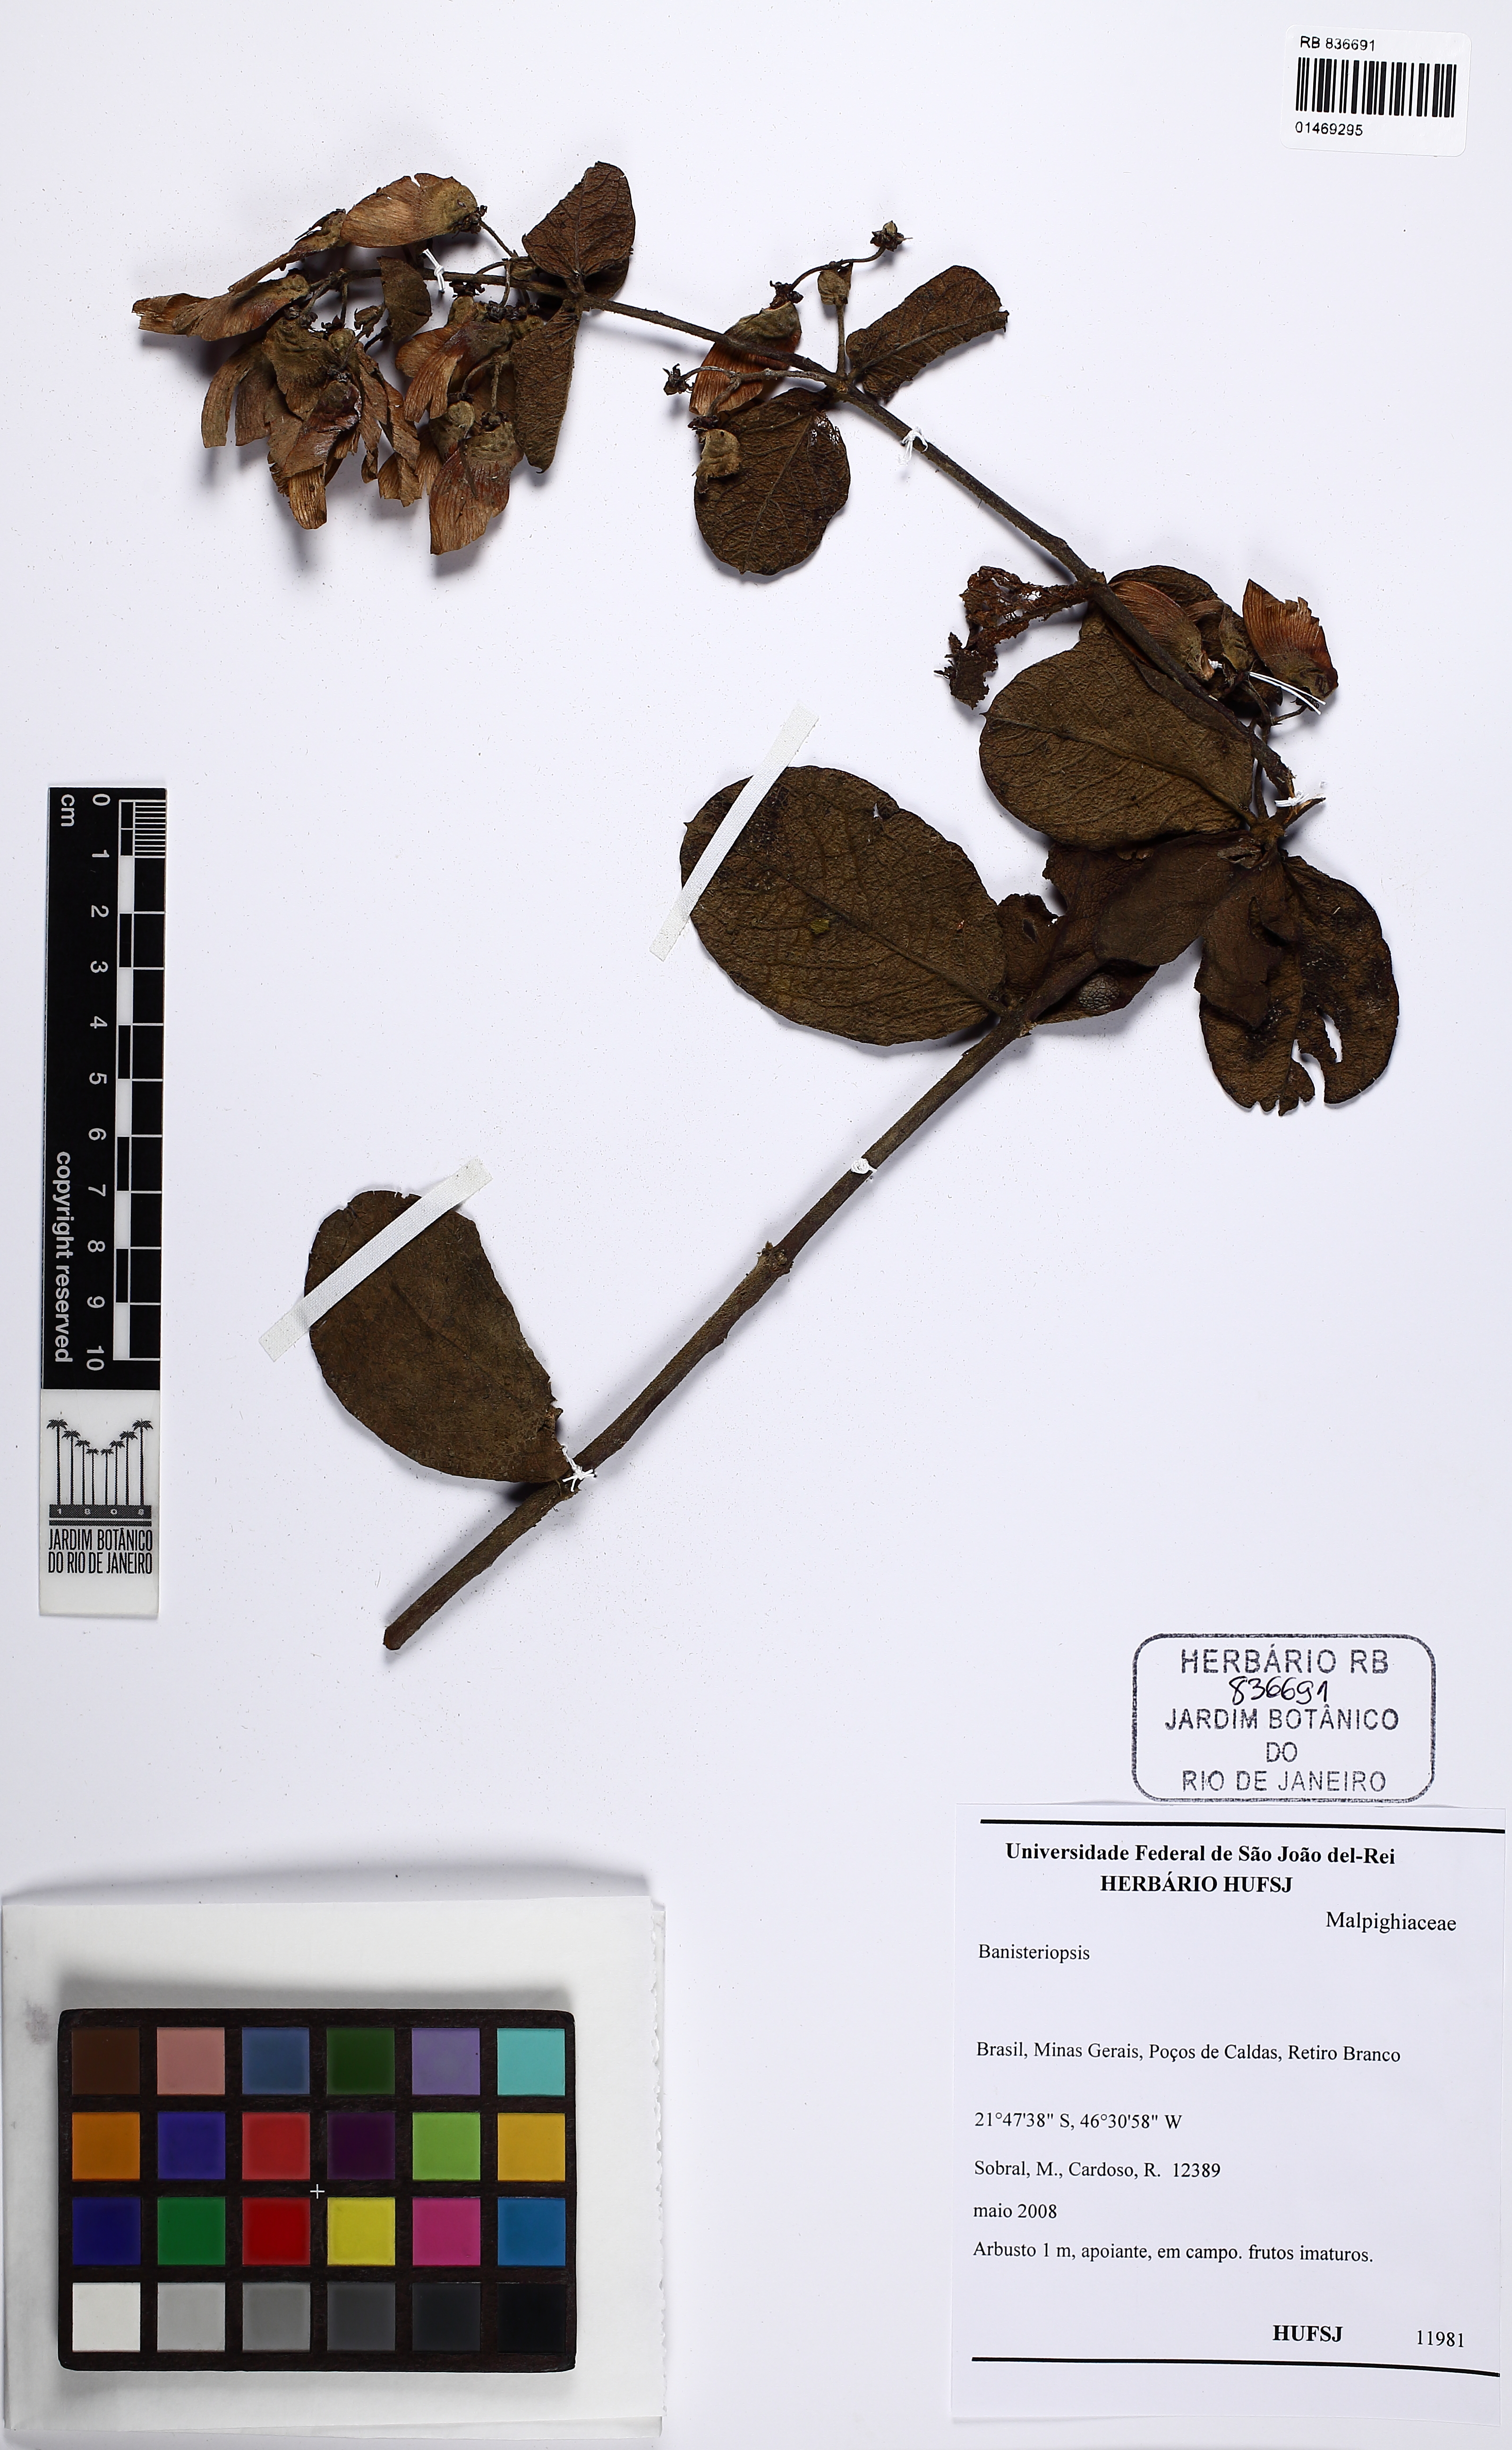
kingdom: Plantae
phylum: Tracheophyta
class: Magnoliopsida
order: Malpighiales
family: Malpighiaceae
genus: Banisteriopsis
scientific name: Banisteriopsis
